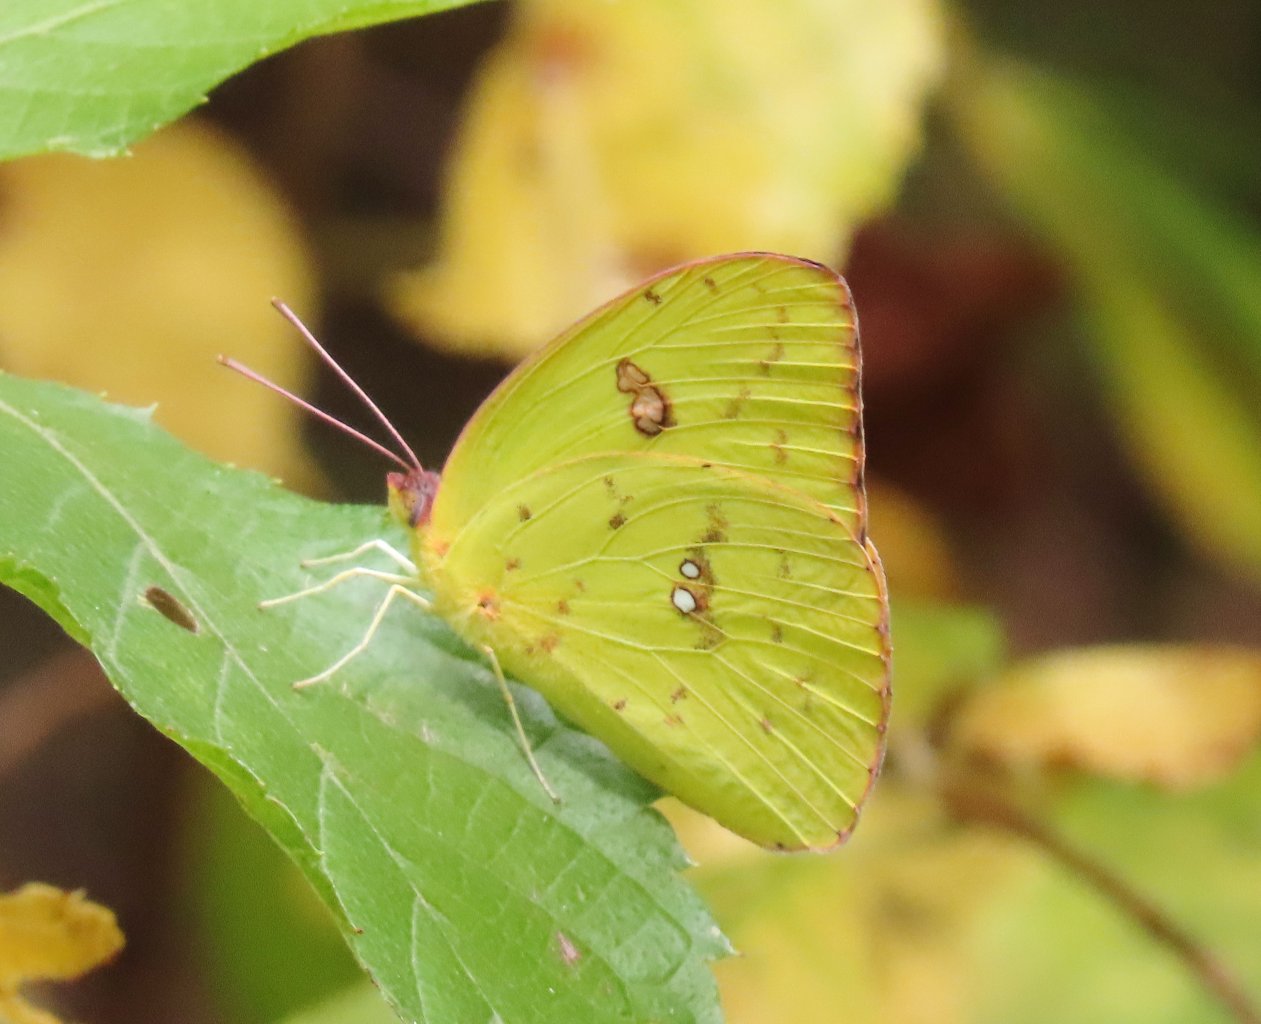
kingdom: Animalia
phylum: Arthropoda
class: Insecta
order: Lepidoptera
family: Pieridae
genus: Phoebis
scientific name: Phoebis sennae
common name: Cloudless Sulphur
